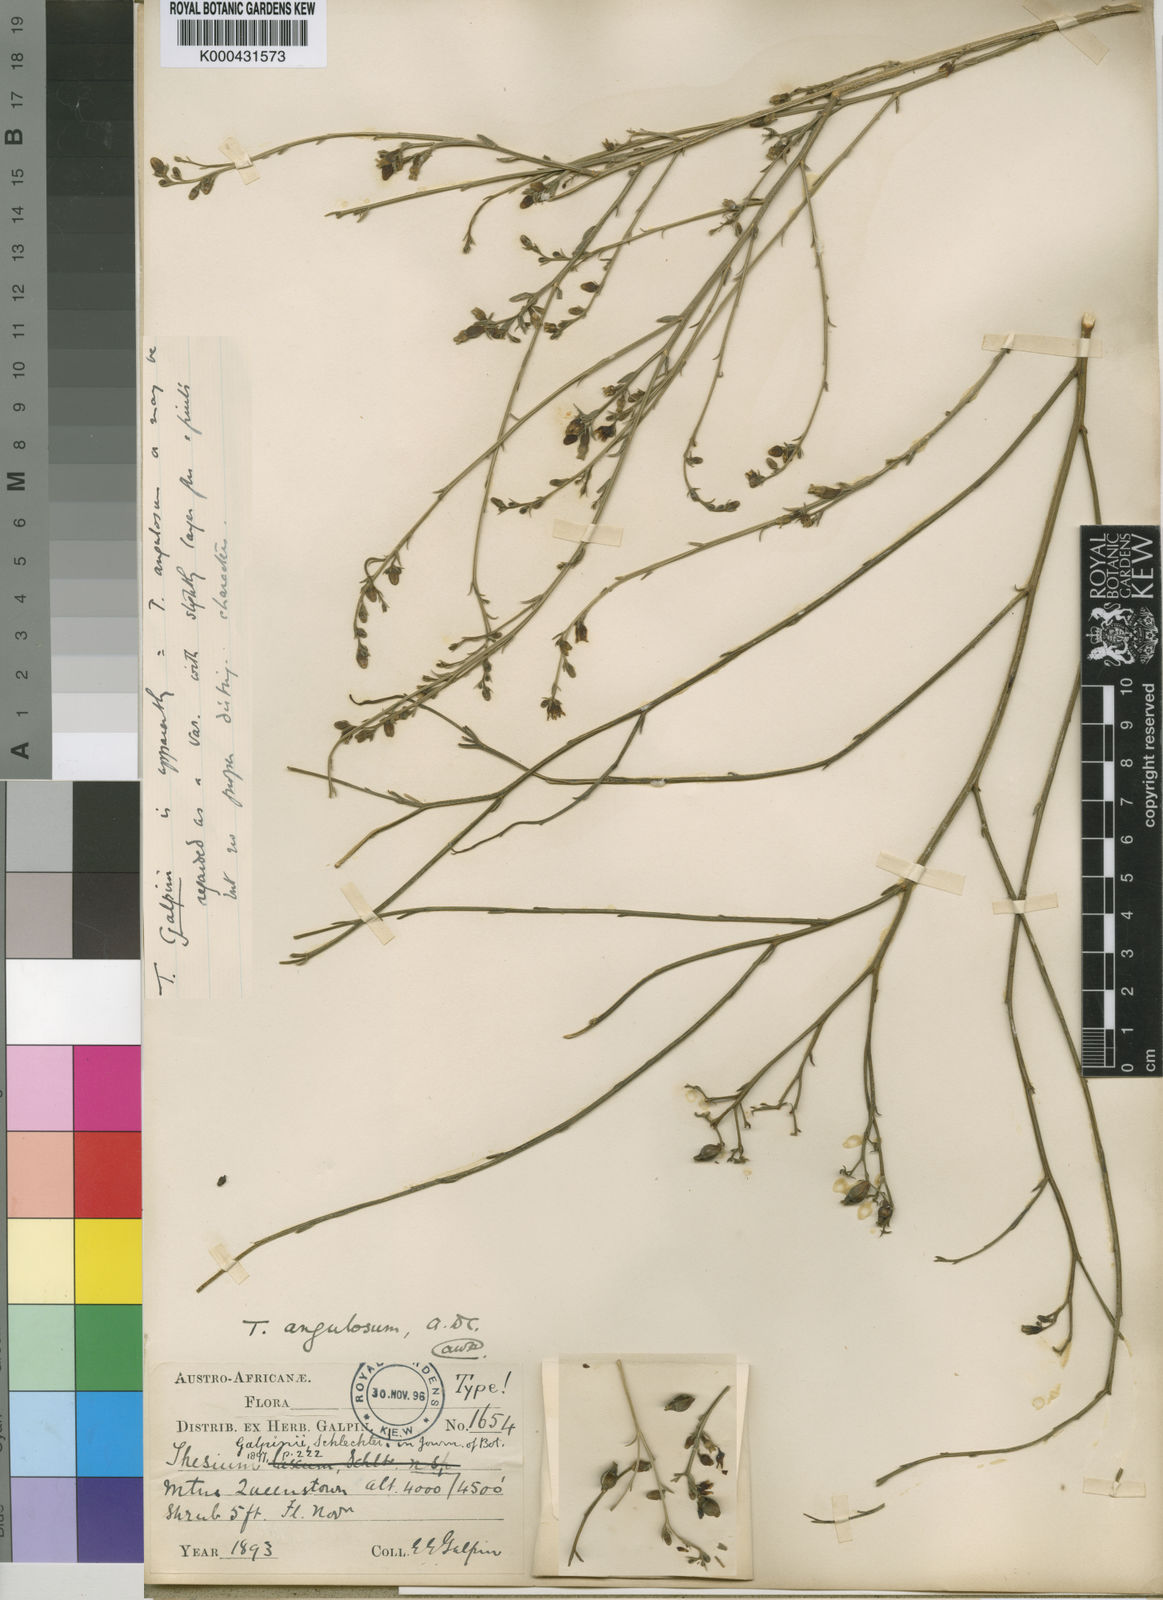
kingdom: Plantae
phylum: Tracheophyta
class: Magnoliopsida
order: Santalales
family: Thesiaceae
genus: Thesium
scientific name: Thesium angulosum
